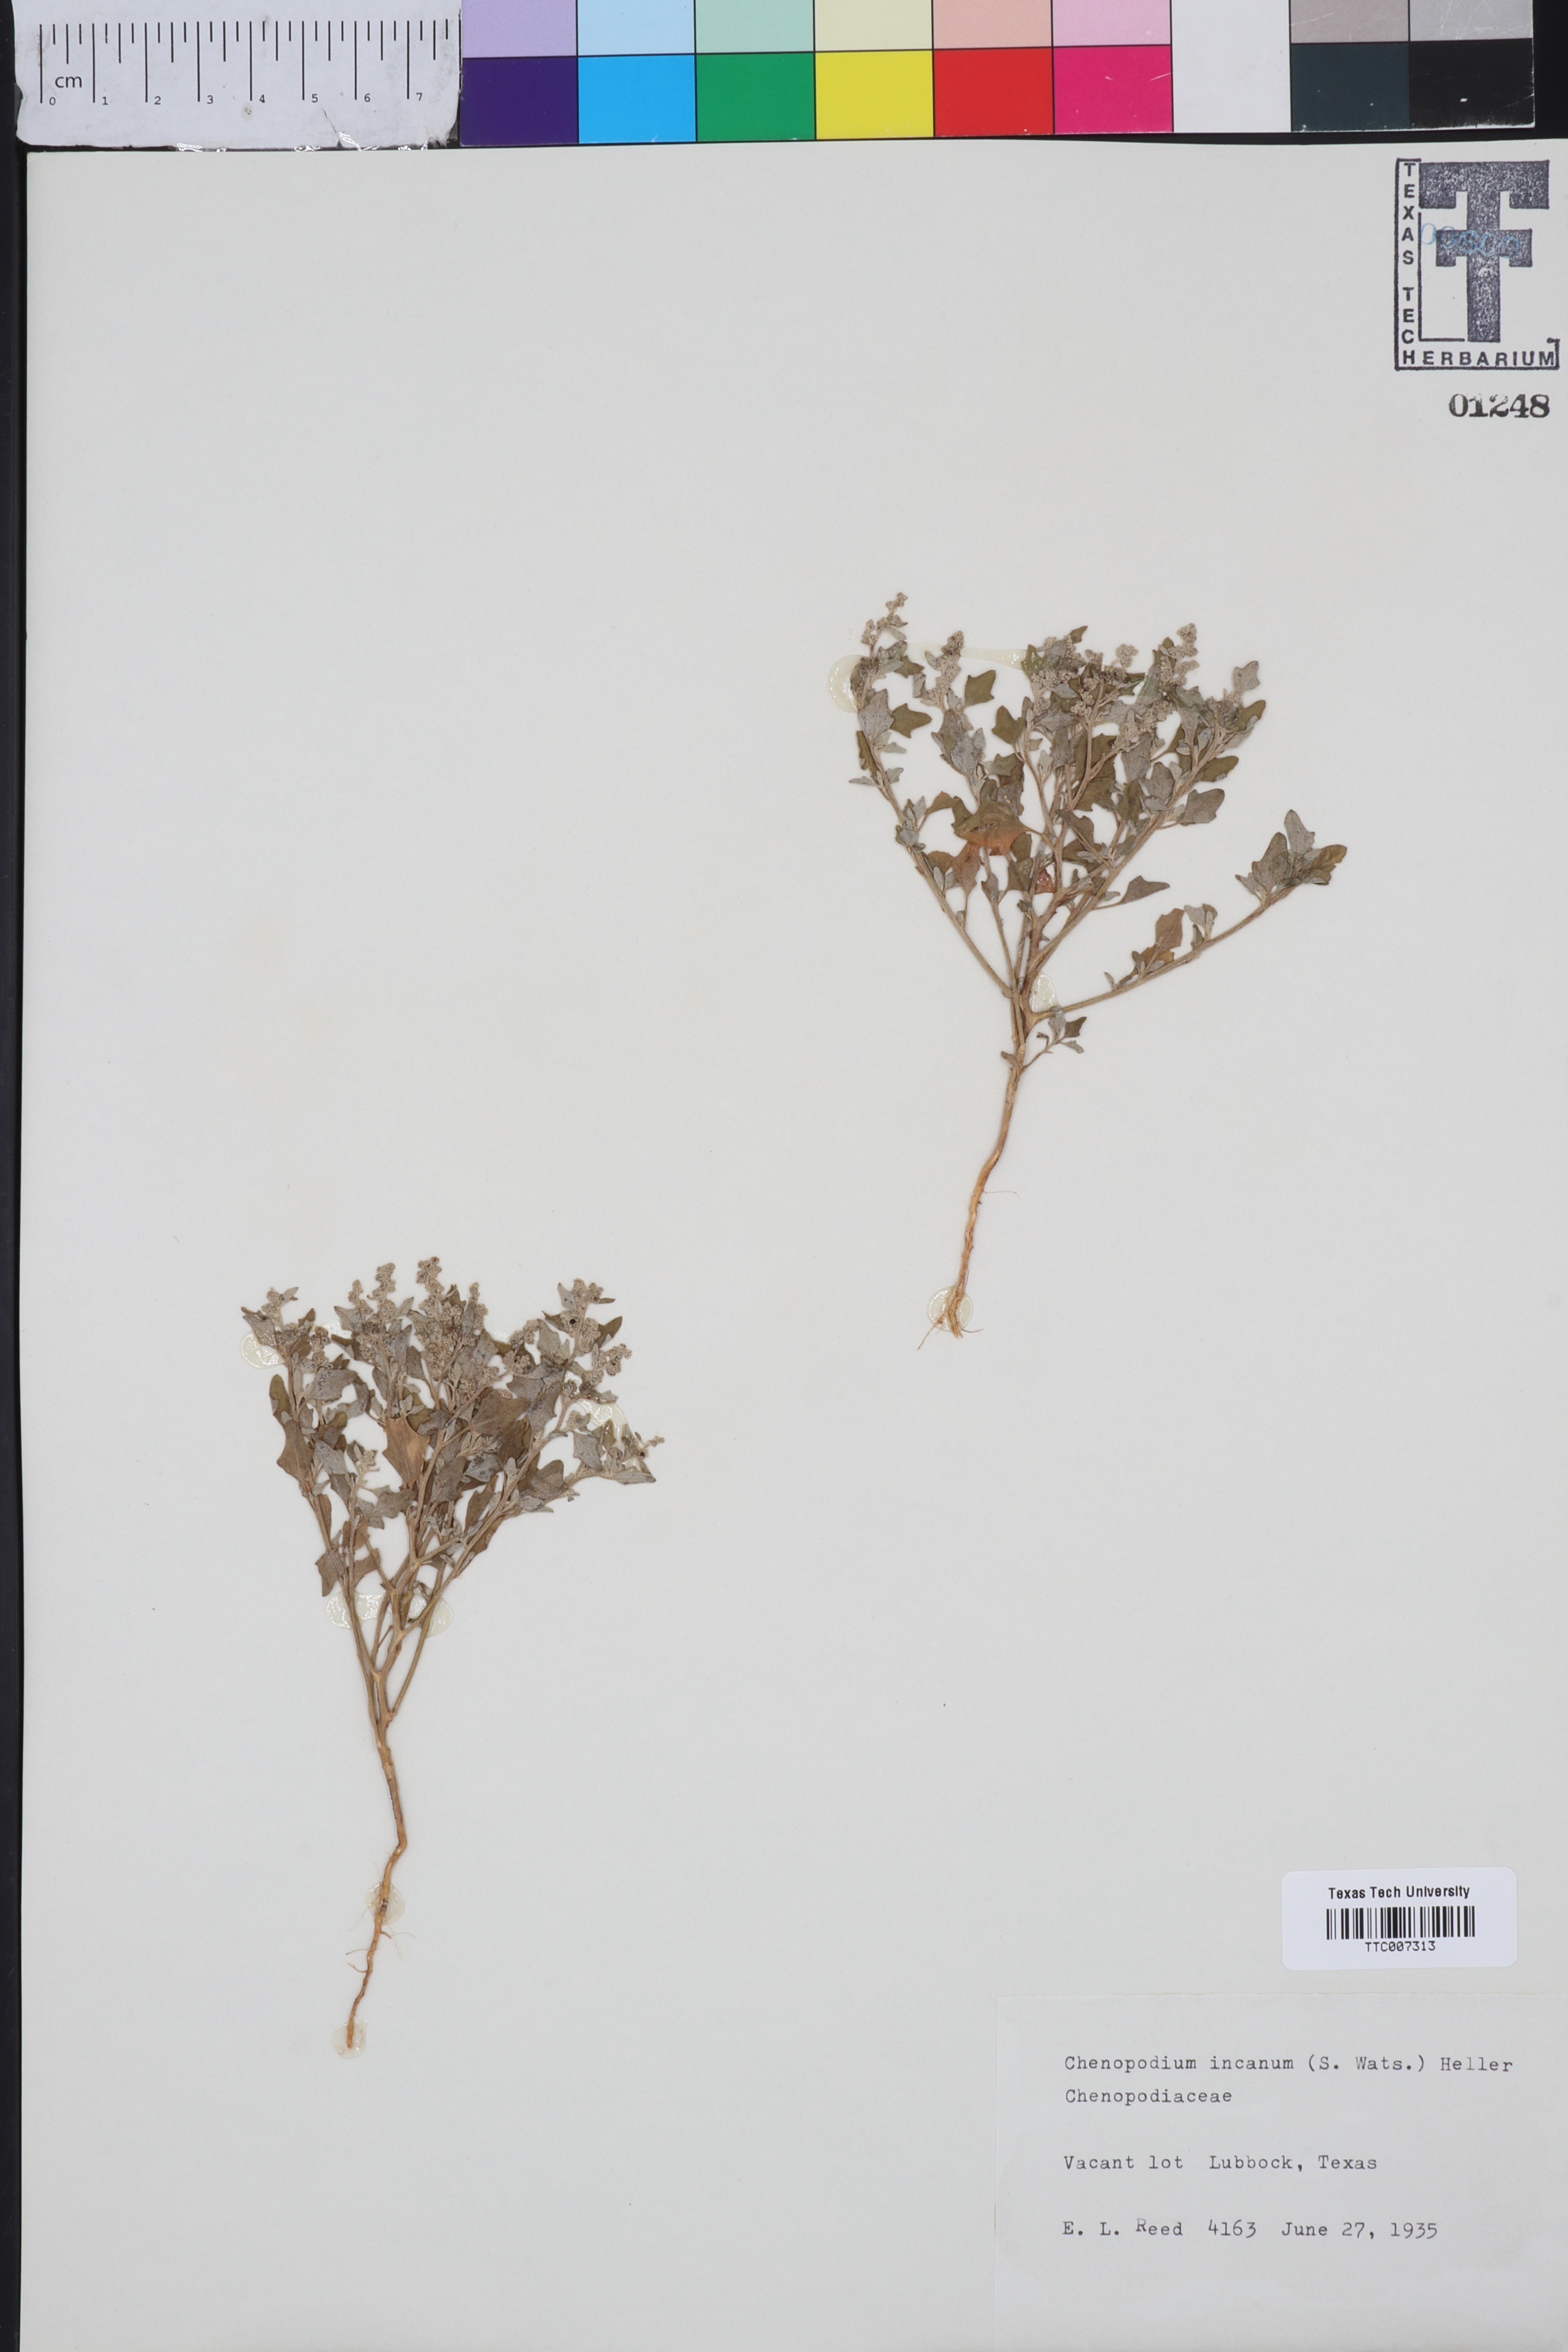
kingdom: Plantae
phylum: Tracheophyta
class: Magnoliopsida
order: Caryophyllales
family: Amaranthaceae
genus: Chenopodium
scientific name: Chenopodium incanum
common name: Hoary goosefoot
